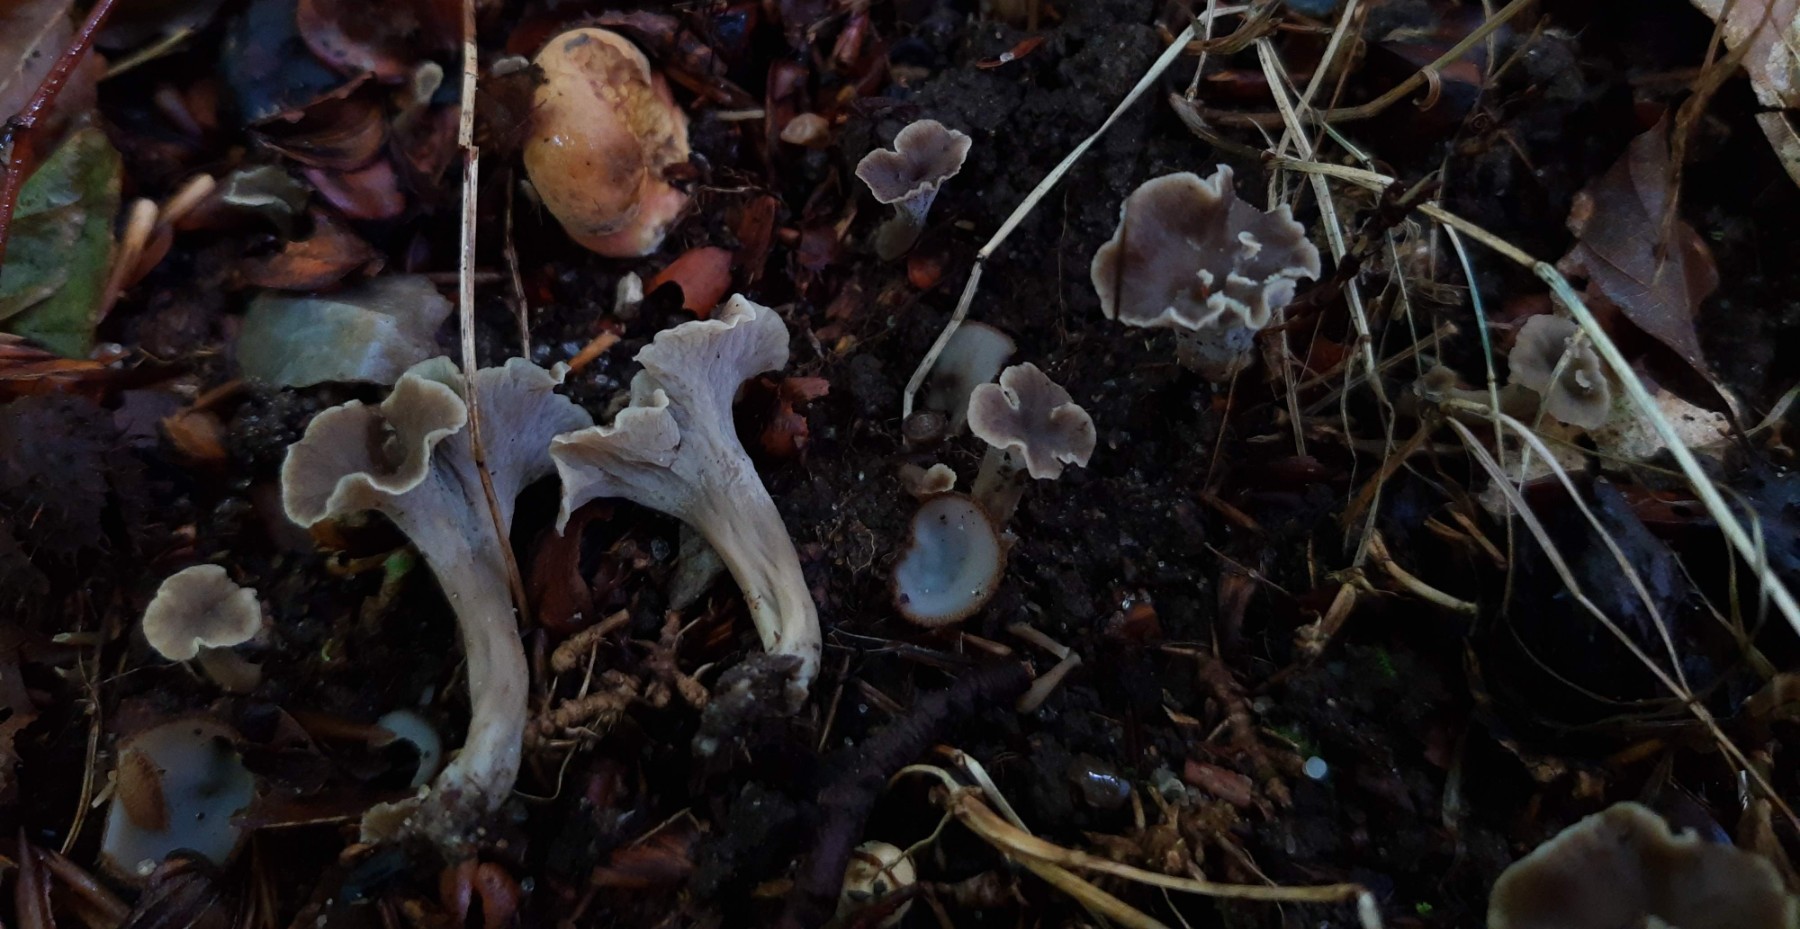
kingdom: Fungi
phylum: Basidiomycota
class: Agaricomycetes
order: Cantharellales
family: Hydnaceae
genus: Craterellus
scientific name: Craterellus undulatus
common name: liden kantarel
